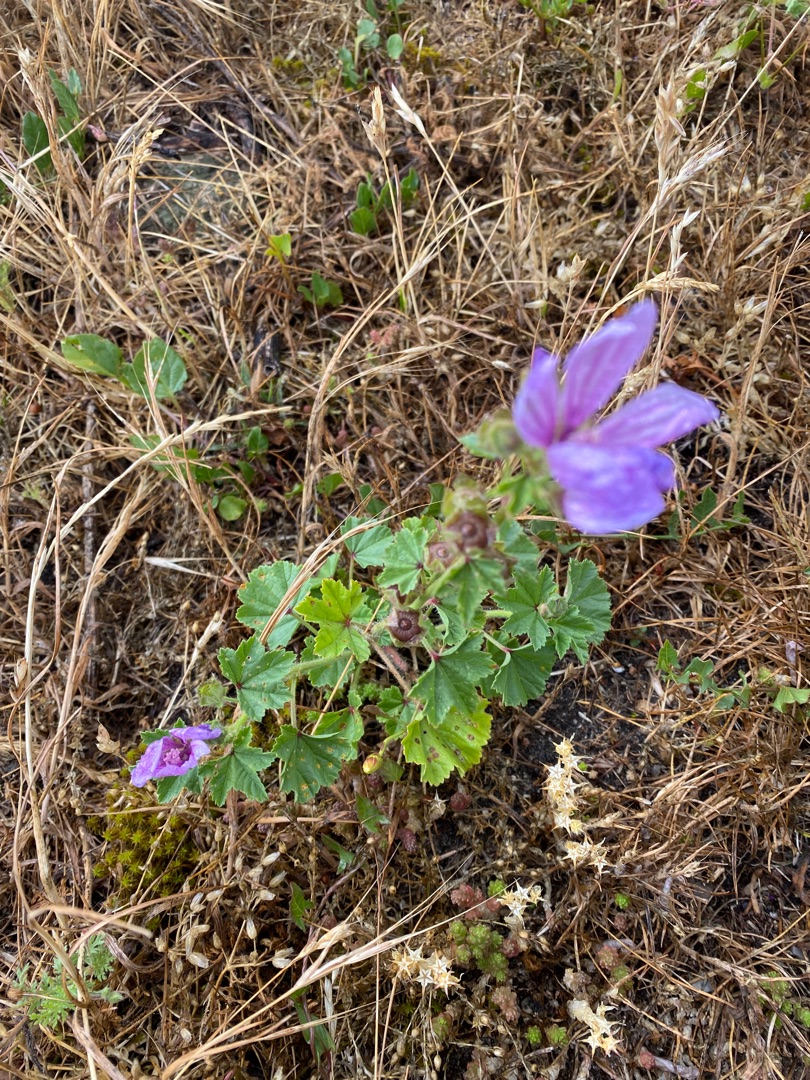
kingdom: Plantae
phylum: Tracheophyta
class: Magnoliopsida
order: Malvales
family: Malvaceae
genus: Malva
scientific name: Malva sylvestris
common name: Almindelig katost
